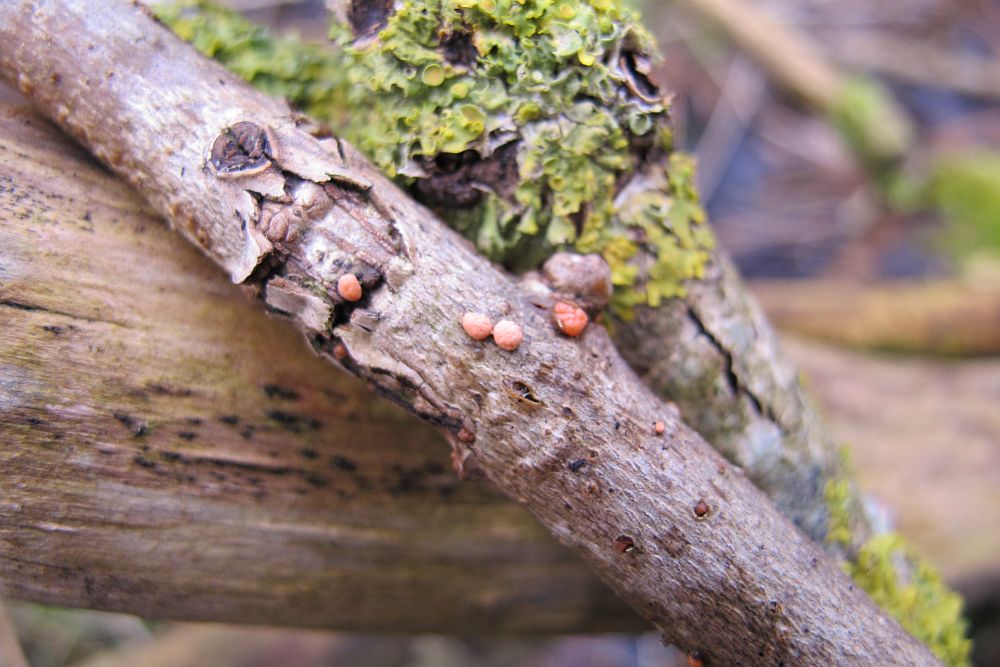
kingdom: Fungi
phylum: Ascomycota
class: Sordariomycetes
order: Hypocreales
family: Nectriaceae
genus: Nectria
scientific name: Nectria cinnabarina
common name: almindelig cinnobersvamp
